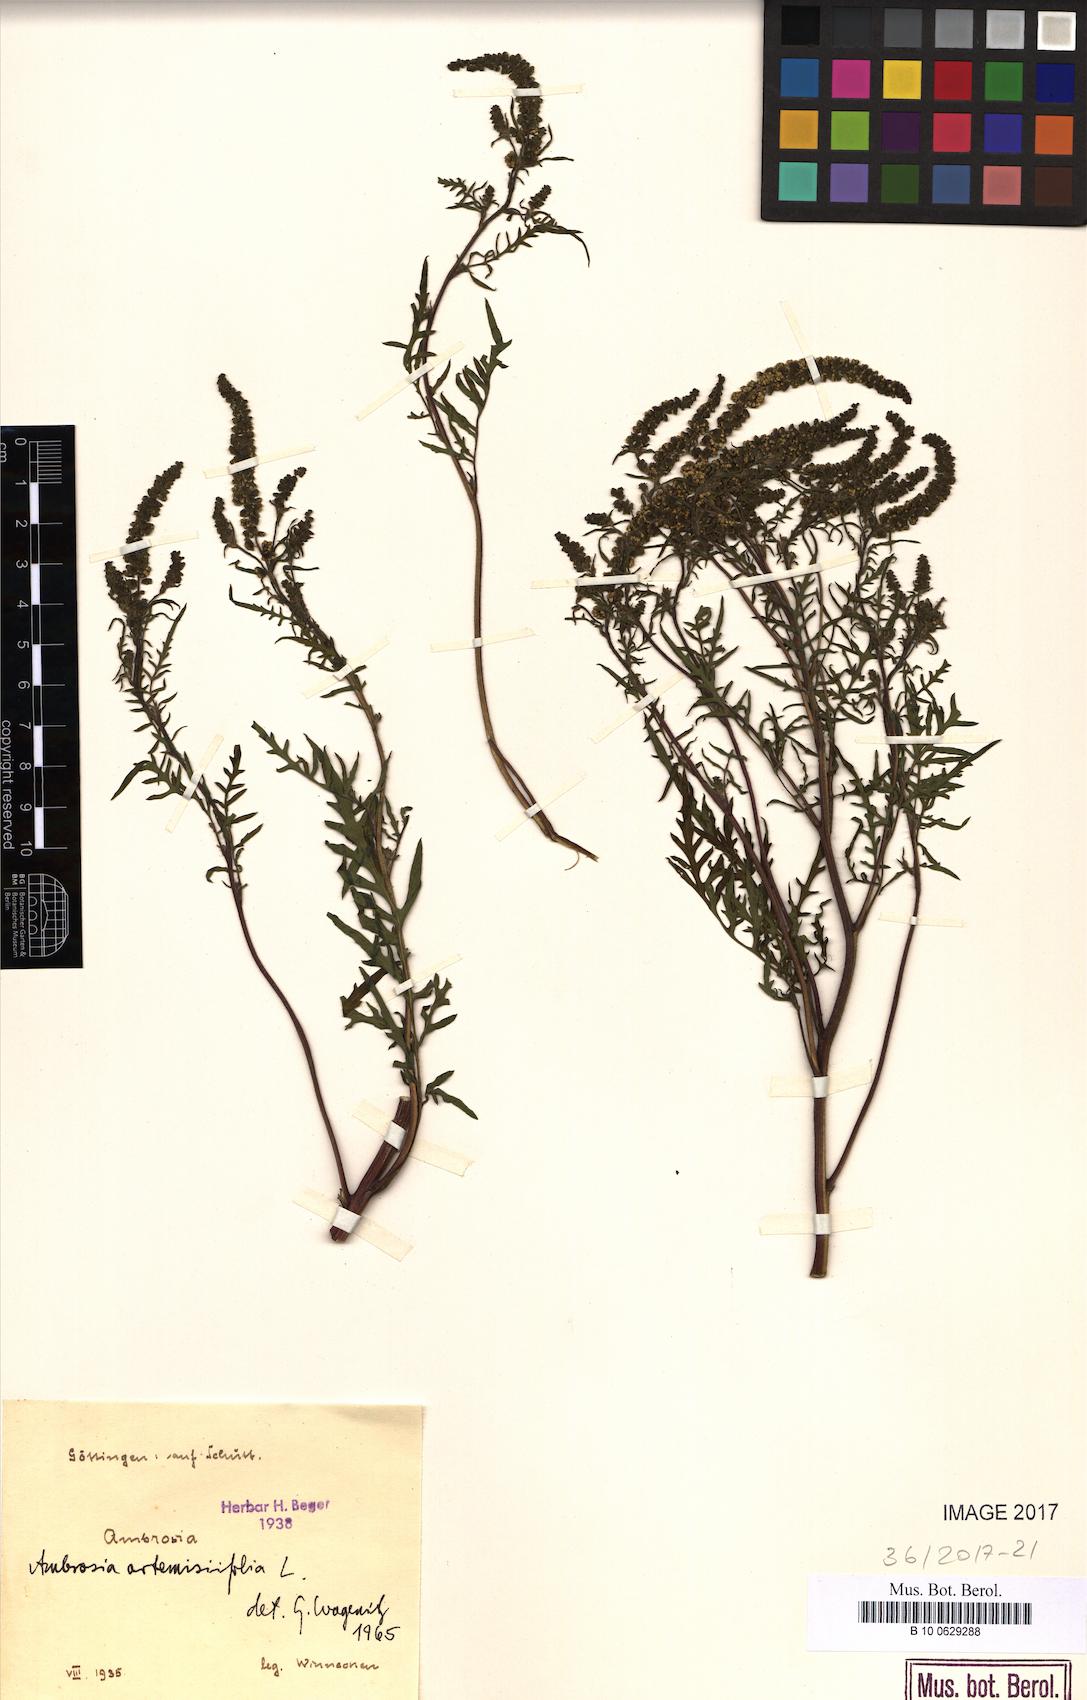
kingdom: Plantae
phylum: Tracheophyta
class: Magnoliopsida
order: Asterales
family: Asteraceae
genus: Ambrosia
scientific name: Ambrosia artemisiifolia
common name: Annual ragweed
